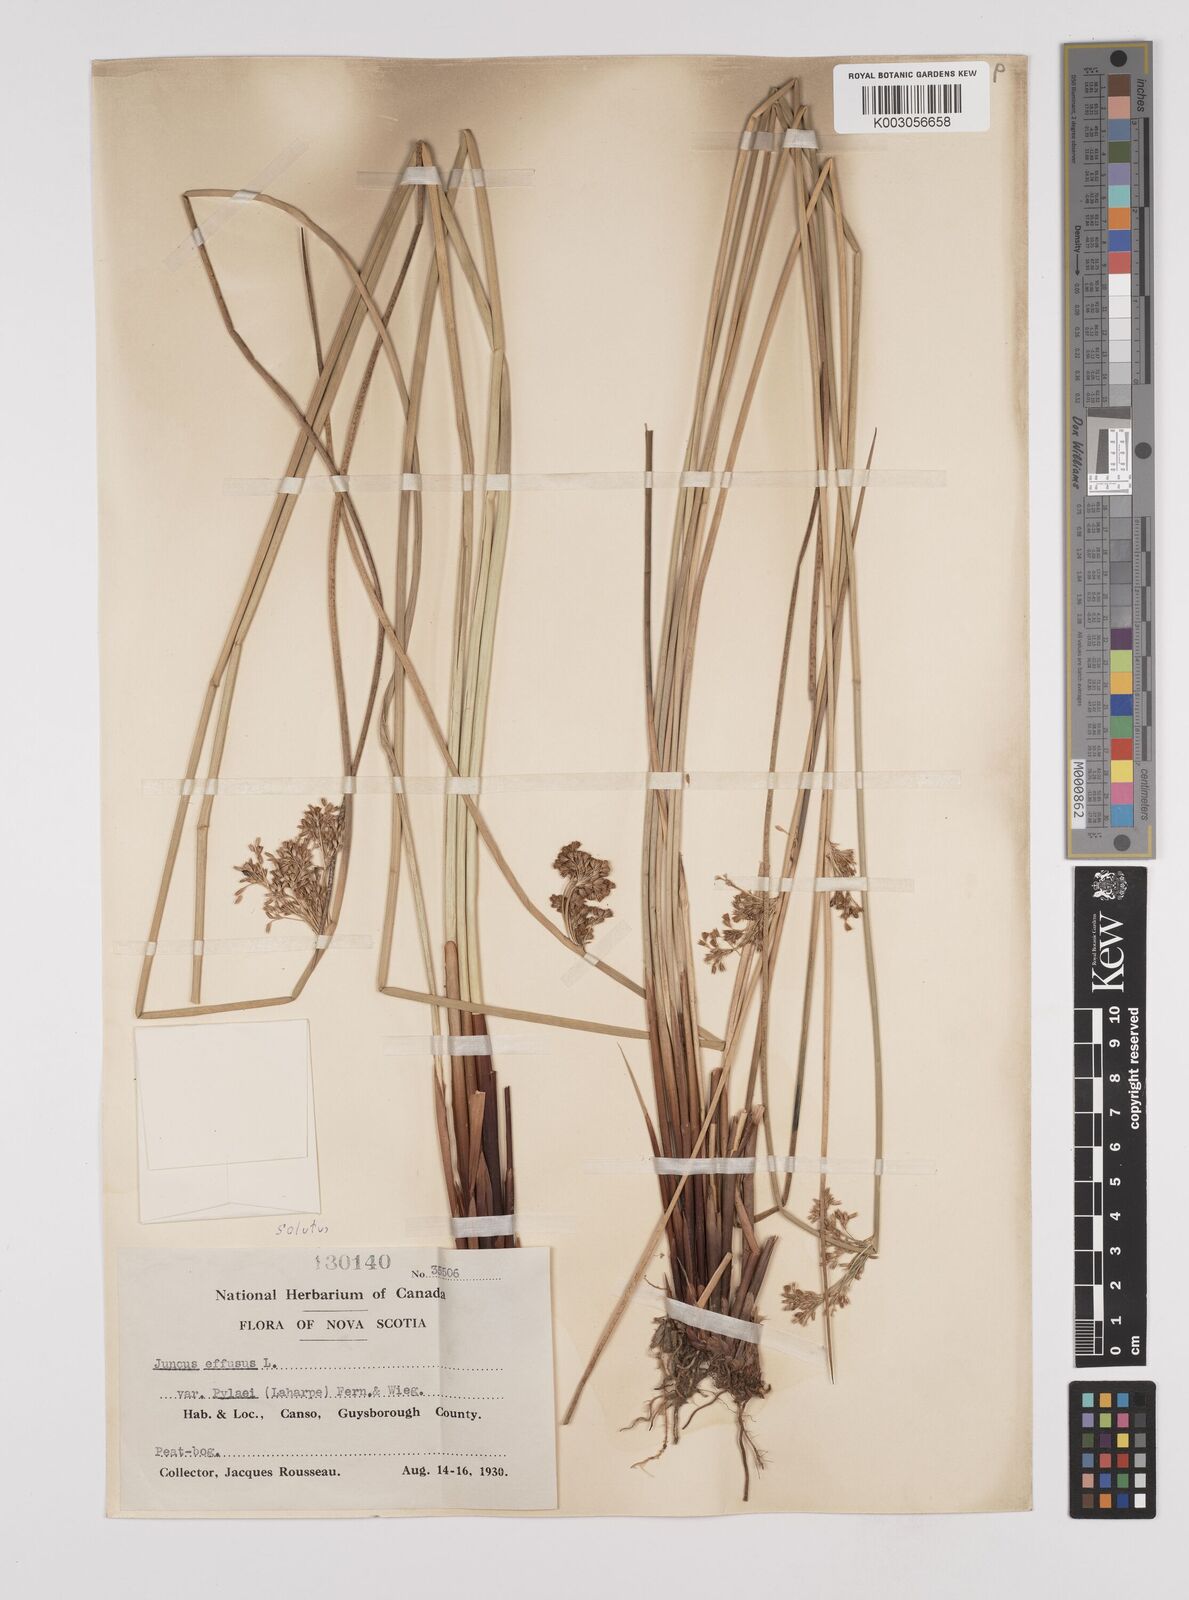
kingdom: Plantae
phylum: Tracheophyta
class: Liliopsida
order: Poales
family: Juncaceae
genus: Juncus
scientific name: Juncus effusus
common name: Soft rush
